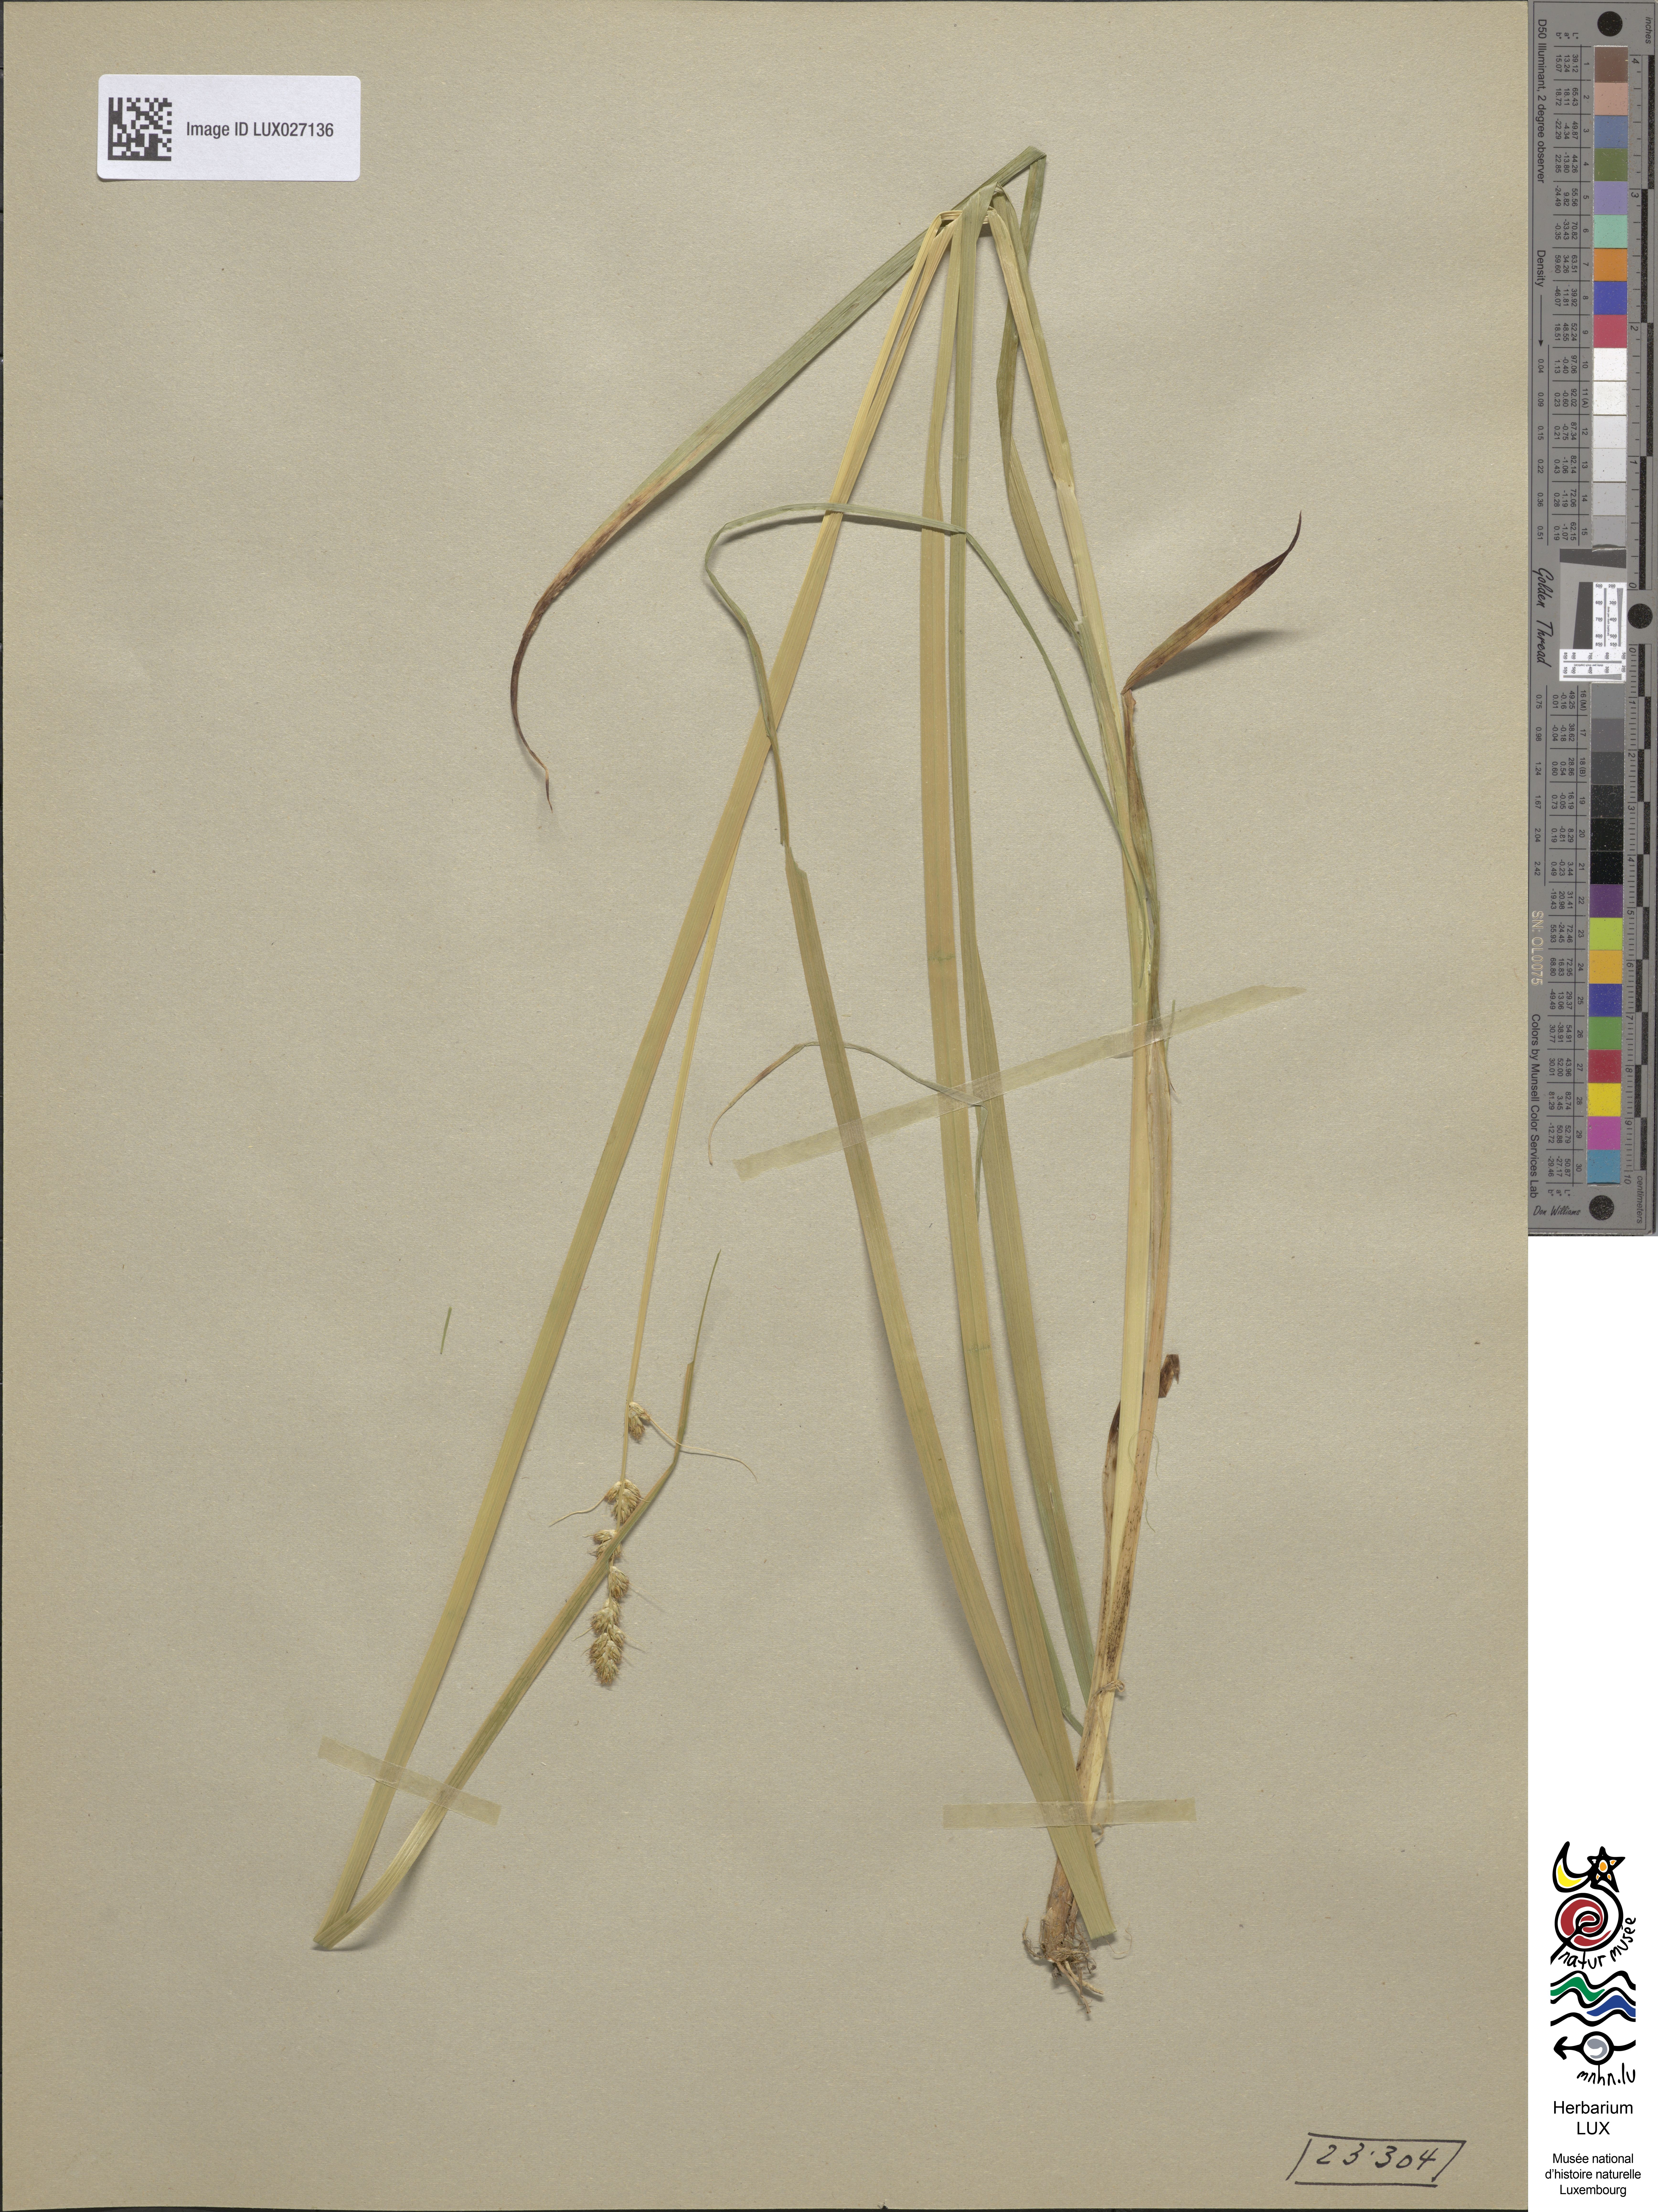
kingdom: Plantae
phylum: Tracheophyta
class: Liliopsida
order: Poales
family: Cyperaceae
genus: Carex
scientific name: Carex otrubae
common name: False fox-sedge
